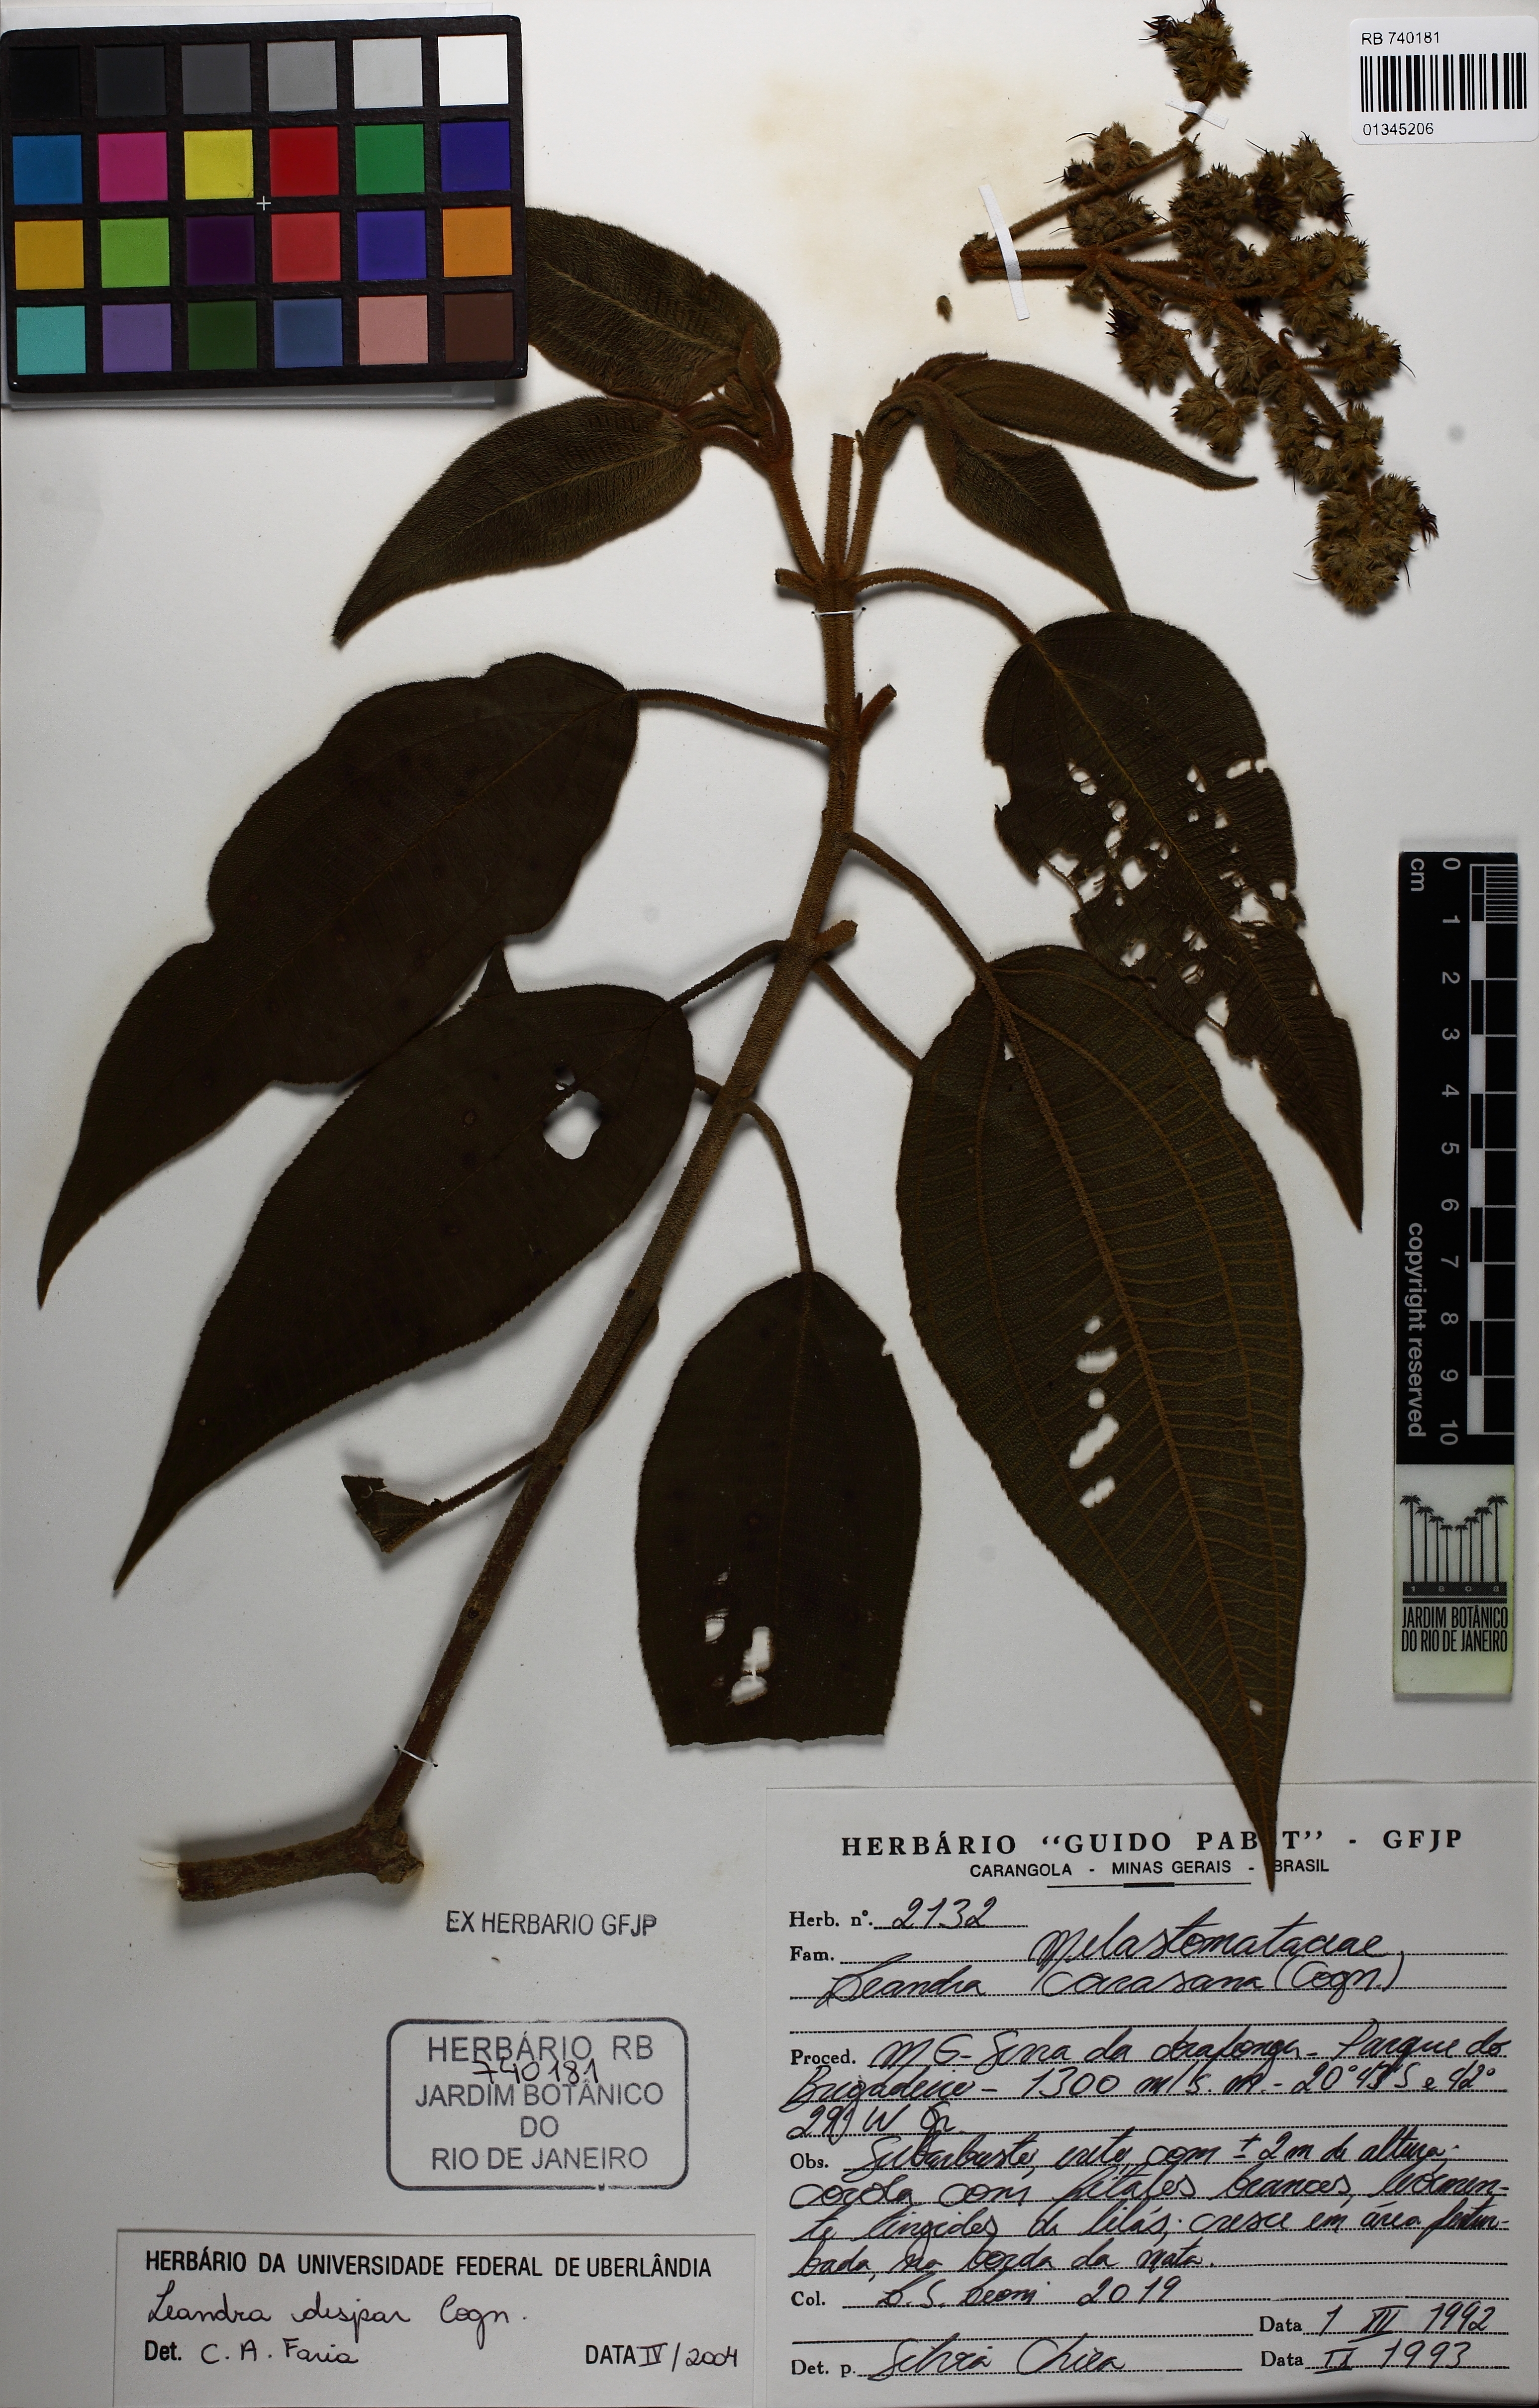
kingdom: Plantae
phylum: Tracheophyta
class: Magnoliopsida
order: Myrtales
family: Melastomataceae
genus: Miconia
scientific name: Miconia leadispar
